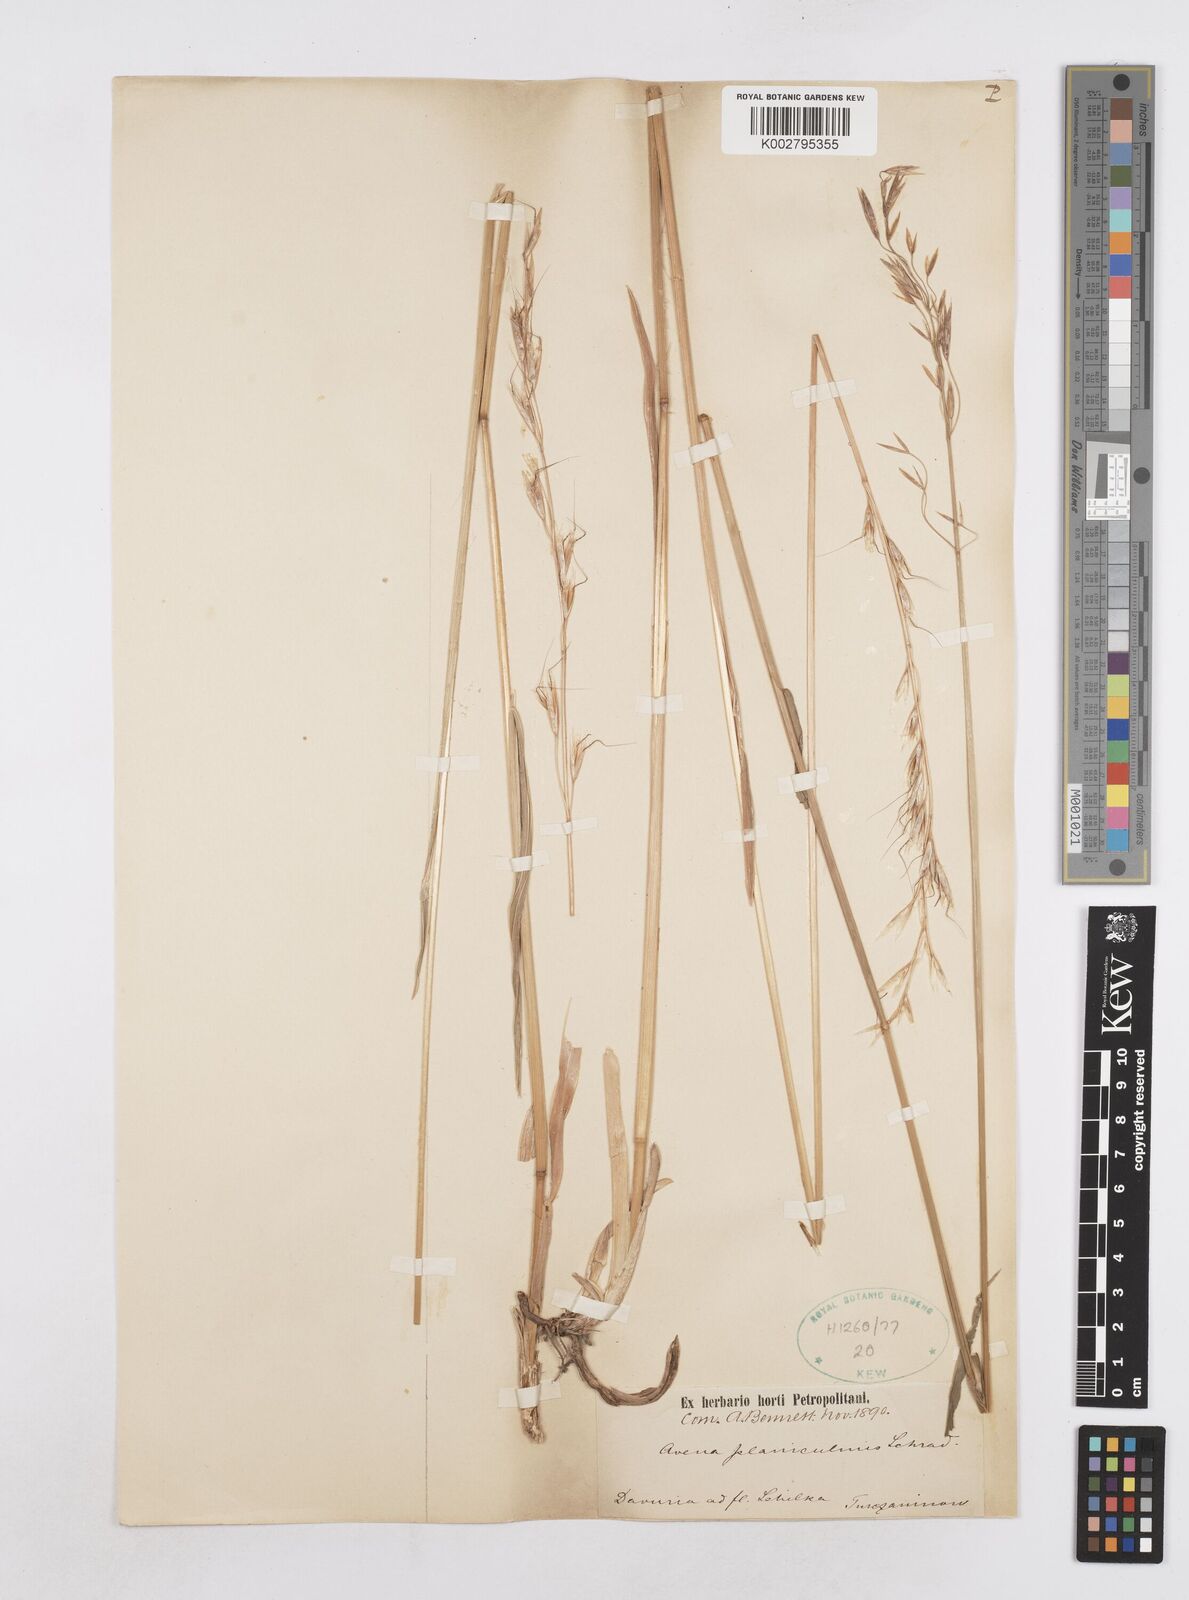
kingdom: Plantae
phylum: Tracheophyta
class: Liliopsida
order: Poales
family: Poaceae
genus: Helictochloa
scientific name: Helictochloa planiculmis
